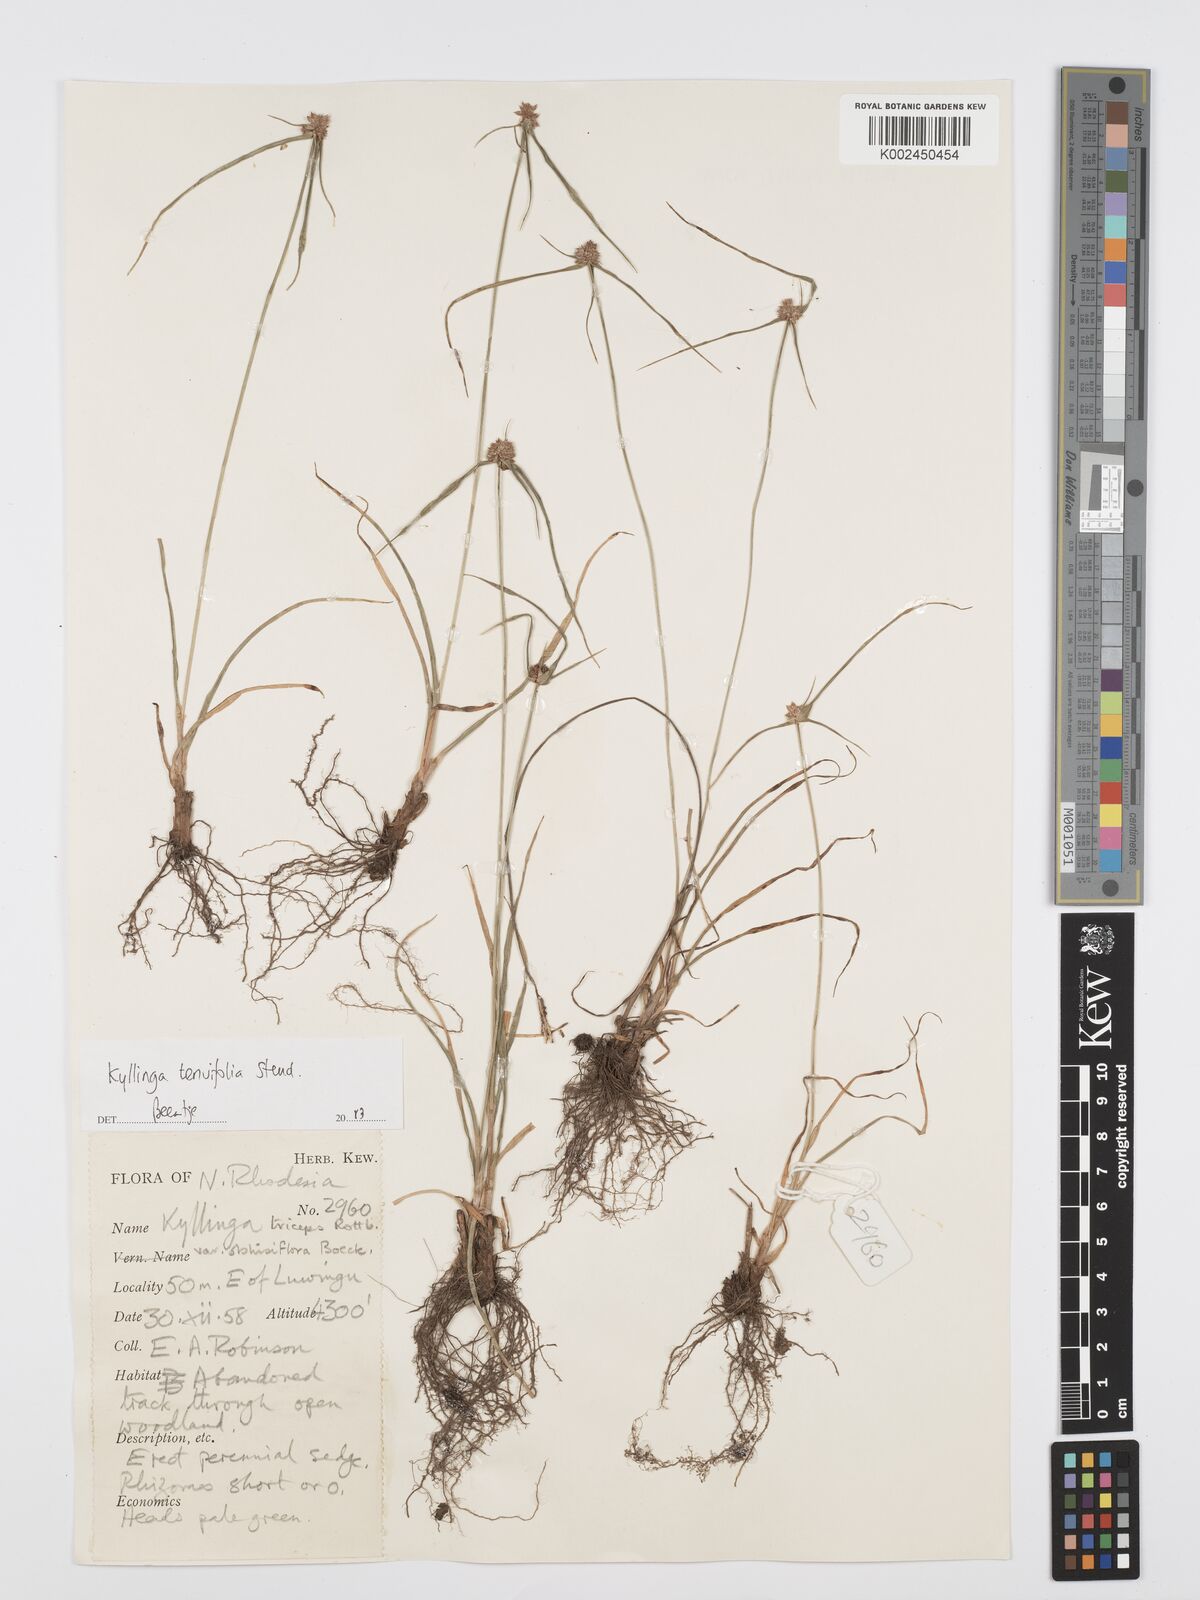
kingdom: Plantae
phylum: Tracheophyta
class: Liliopsida
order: Poales
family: Cyperaceae
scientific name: Cyperaceae
